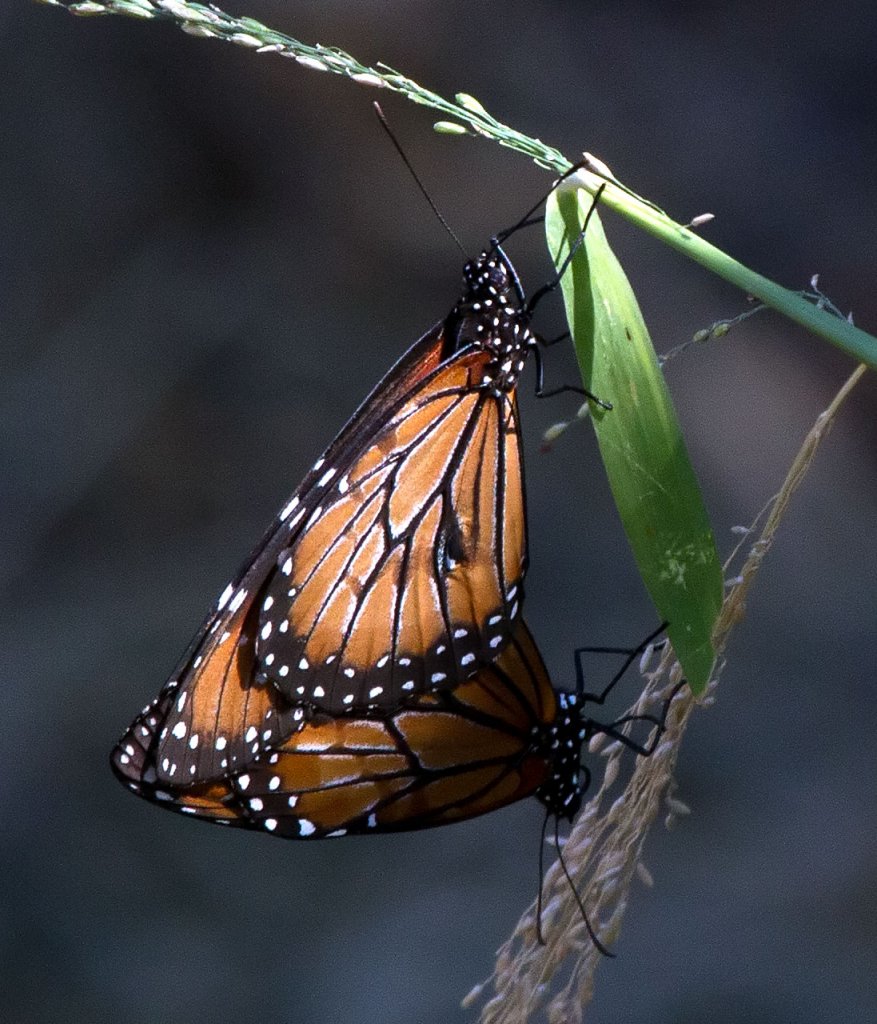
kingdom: Animalia
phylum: Arthropoda
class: Insecta
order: Lepidoptera
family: Nymphalidae
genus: Danaus
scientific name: Danaus eresimus
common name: Soldier
